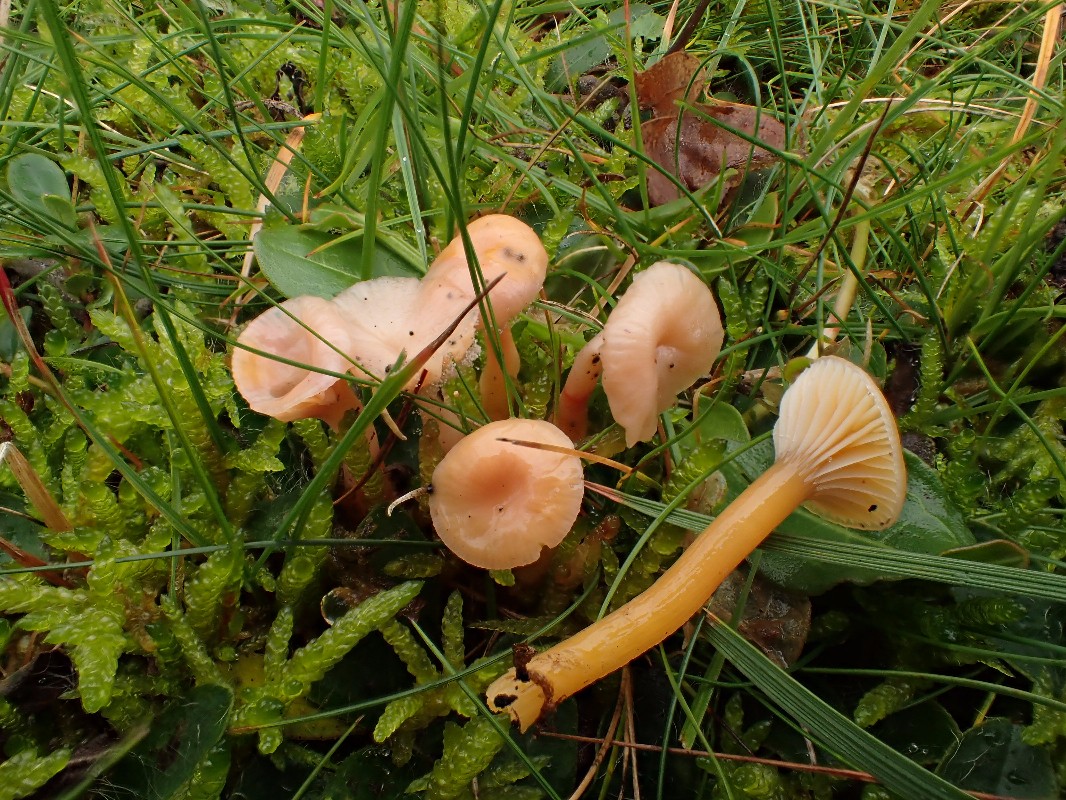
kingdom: Fungi
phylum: Basidiomycota
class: Agaricomycetes
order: Agaricales
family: Hygrophoraceae
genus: Gliophorus
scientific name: Gliophorus laetus
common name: brusk-vokshat
